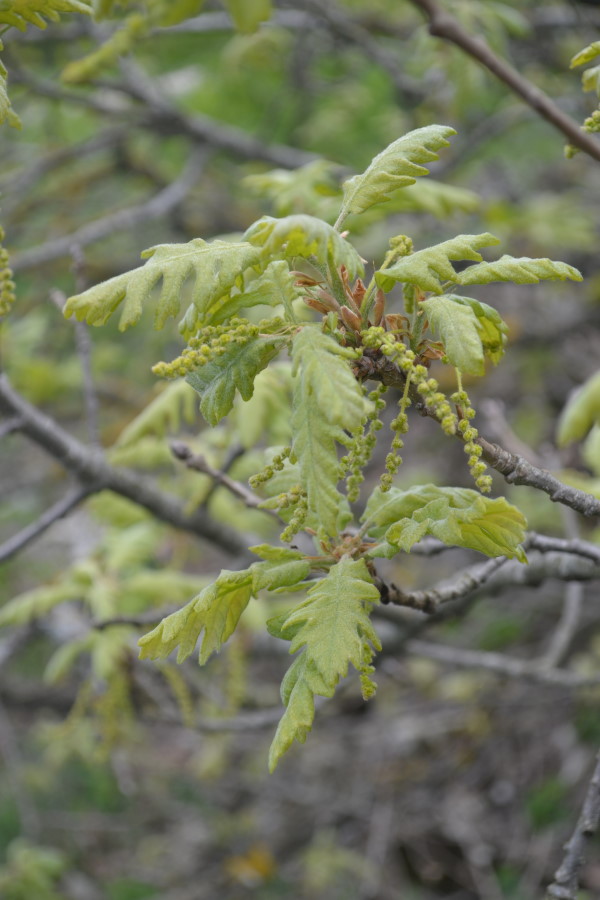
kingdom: Plantae
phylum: Tracheophyta
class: Magnoliopsida
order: Fagales
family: Fagaceae
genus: Quercus
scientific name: Quercus petraea
